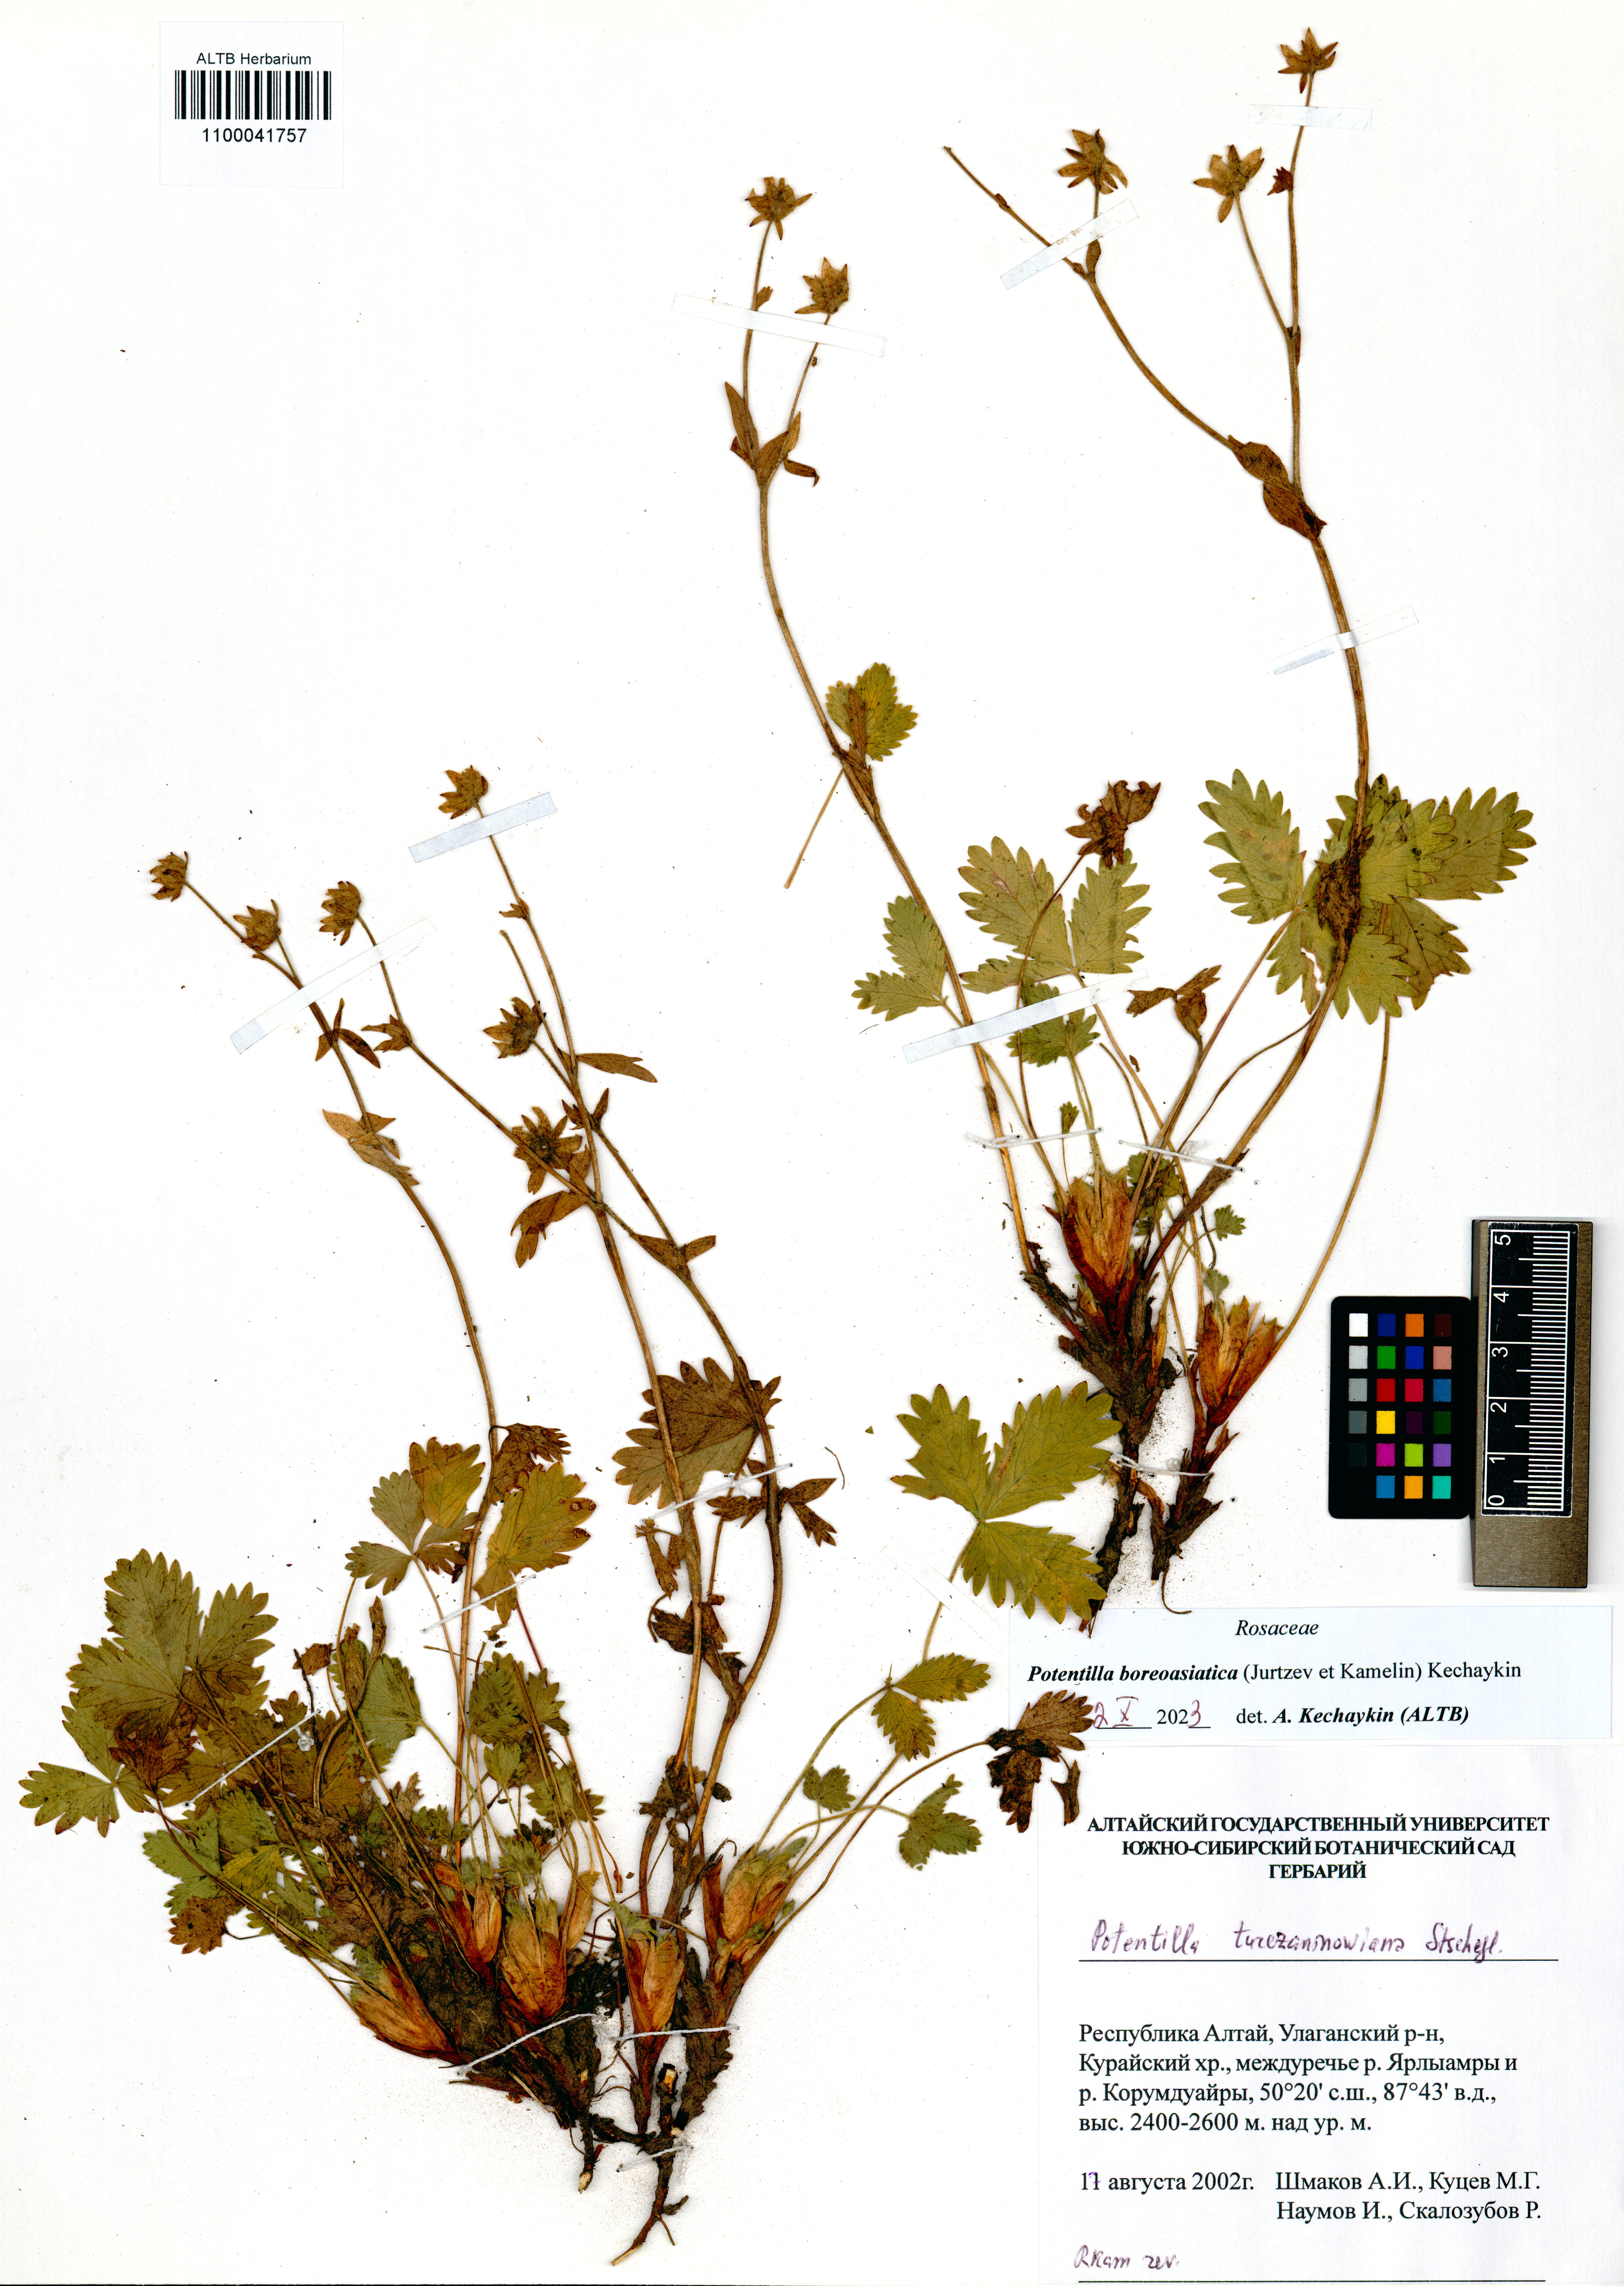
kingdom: Plantae
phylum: Tracheophyta
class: Magnoliopsida
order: Rosales
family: Rosaceae
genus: Potentilla
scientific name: Potentilla
